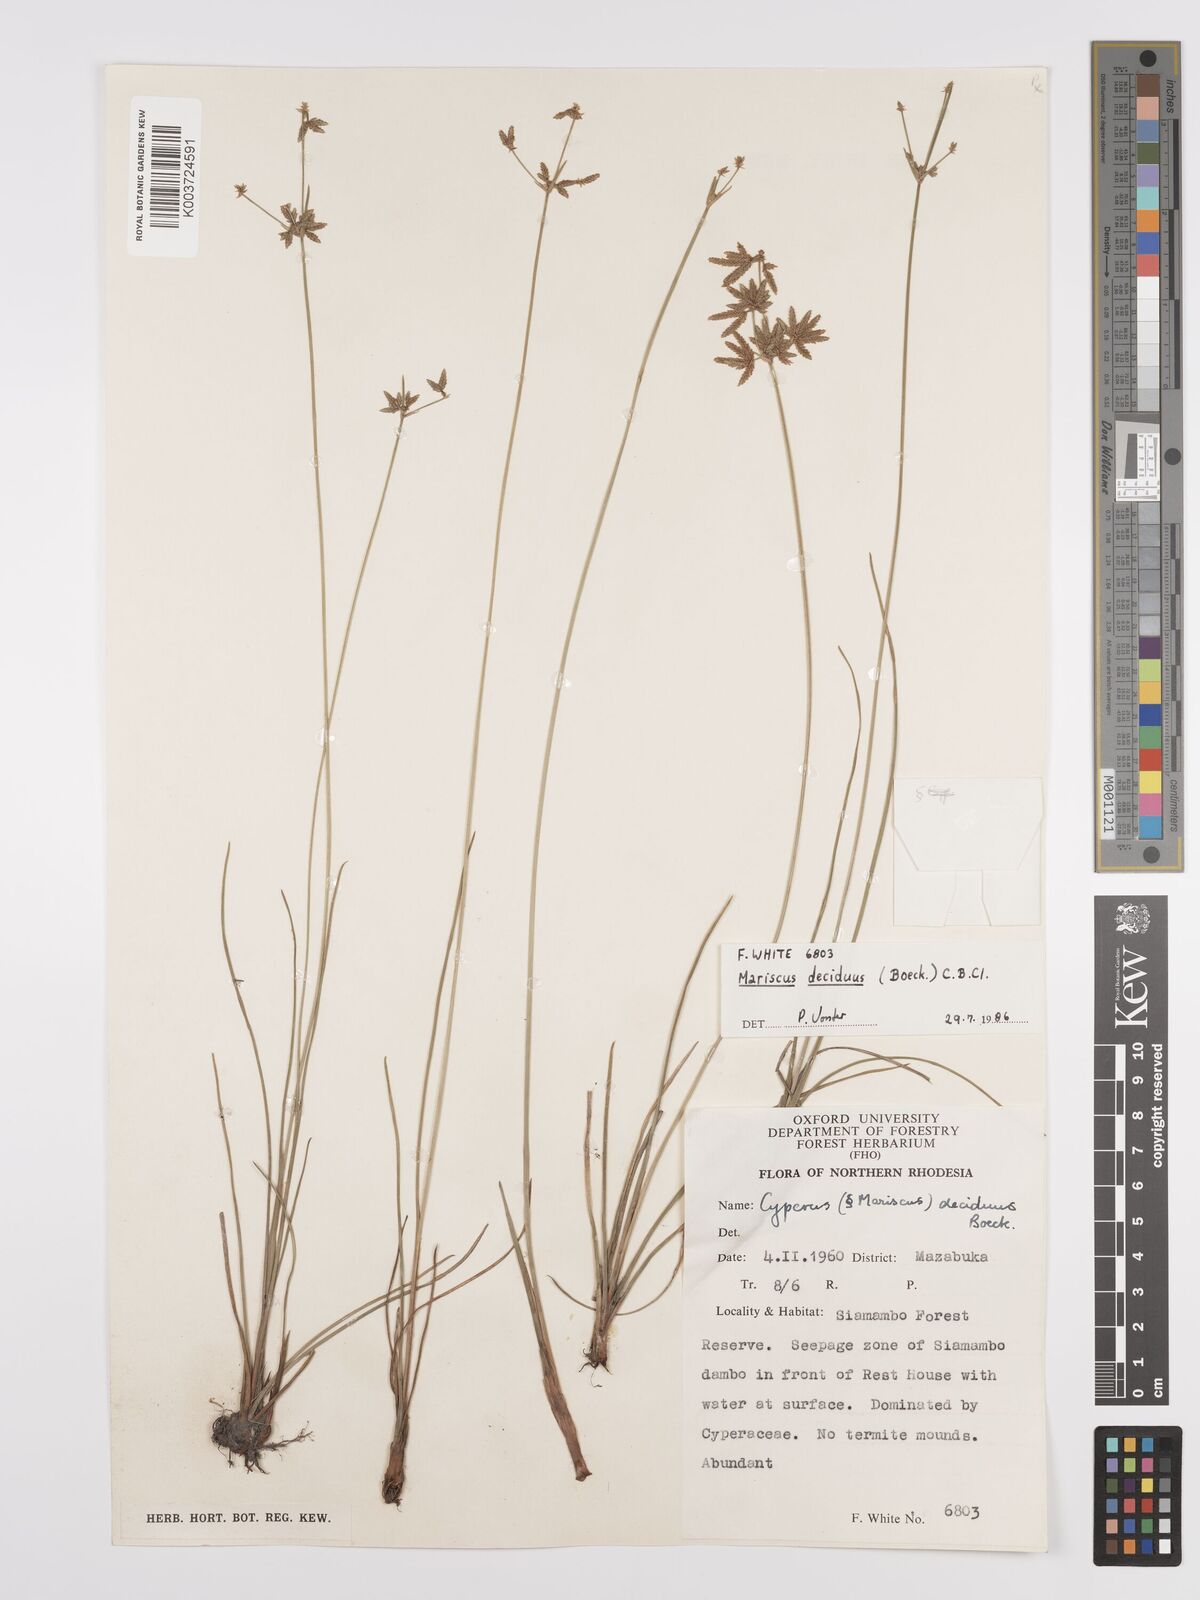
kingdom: Plantae
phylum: Tracheophyta
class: Liliopsida
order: Poales
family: Cyperaceae
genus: Cyperus
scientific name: Cyperus deciduus
